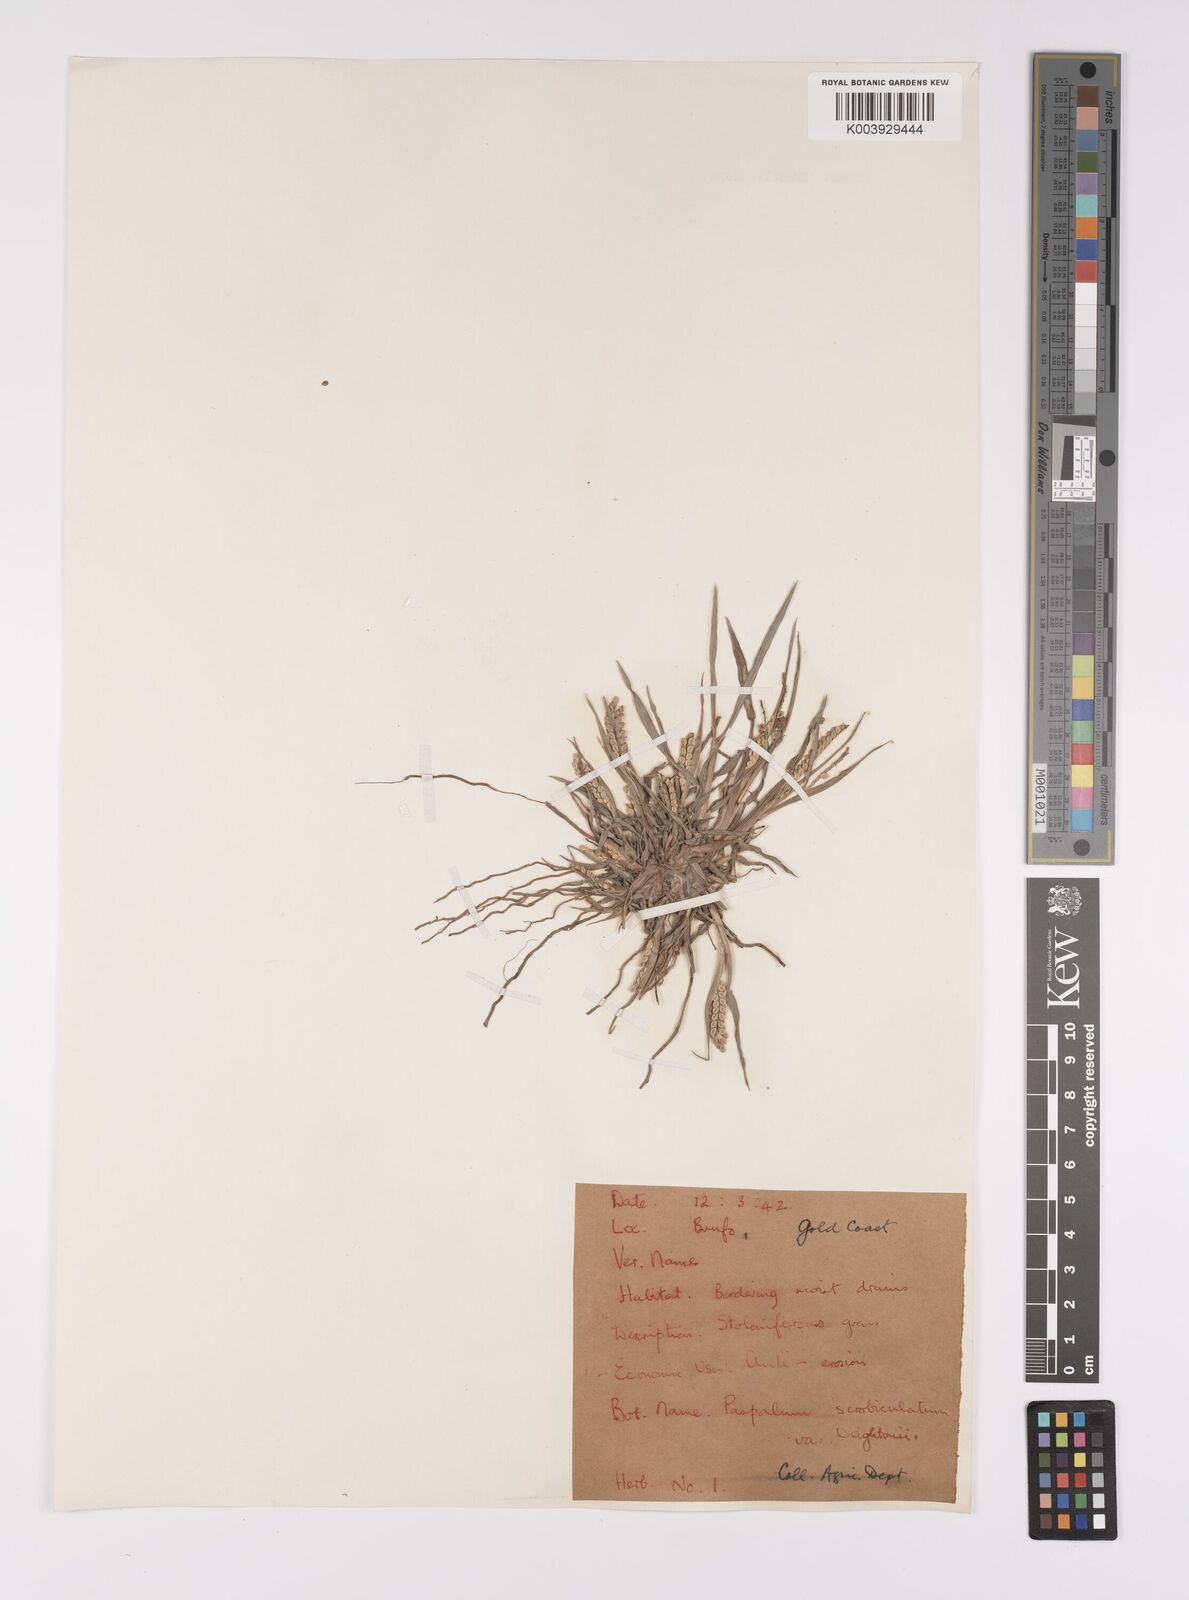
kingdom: Plantae
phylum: Tracheophyta
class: Liliopsida
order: Poales
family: Poaceae
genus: Paspalum
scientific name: Paspalum scrobiculatum
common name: Kodo millet
